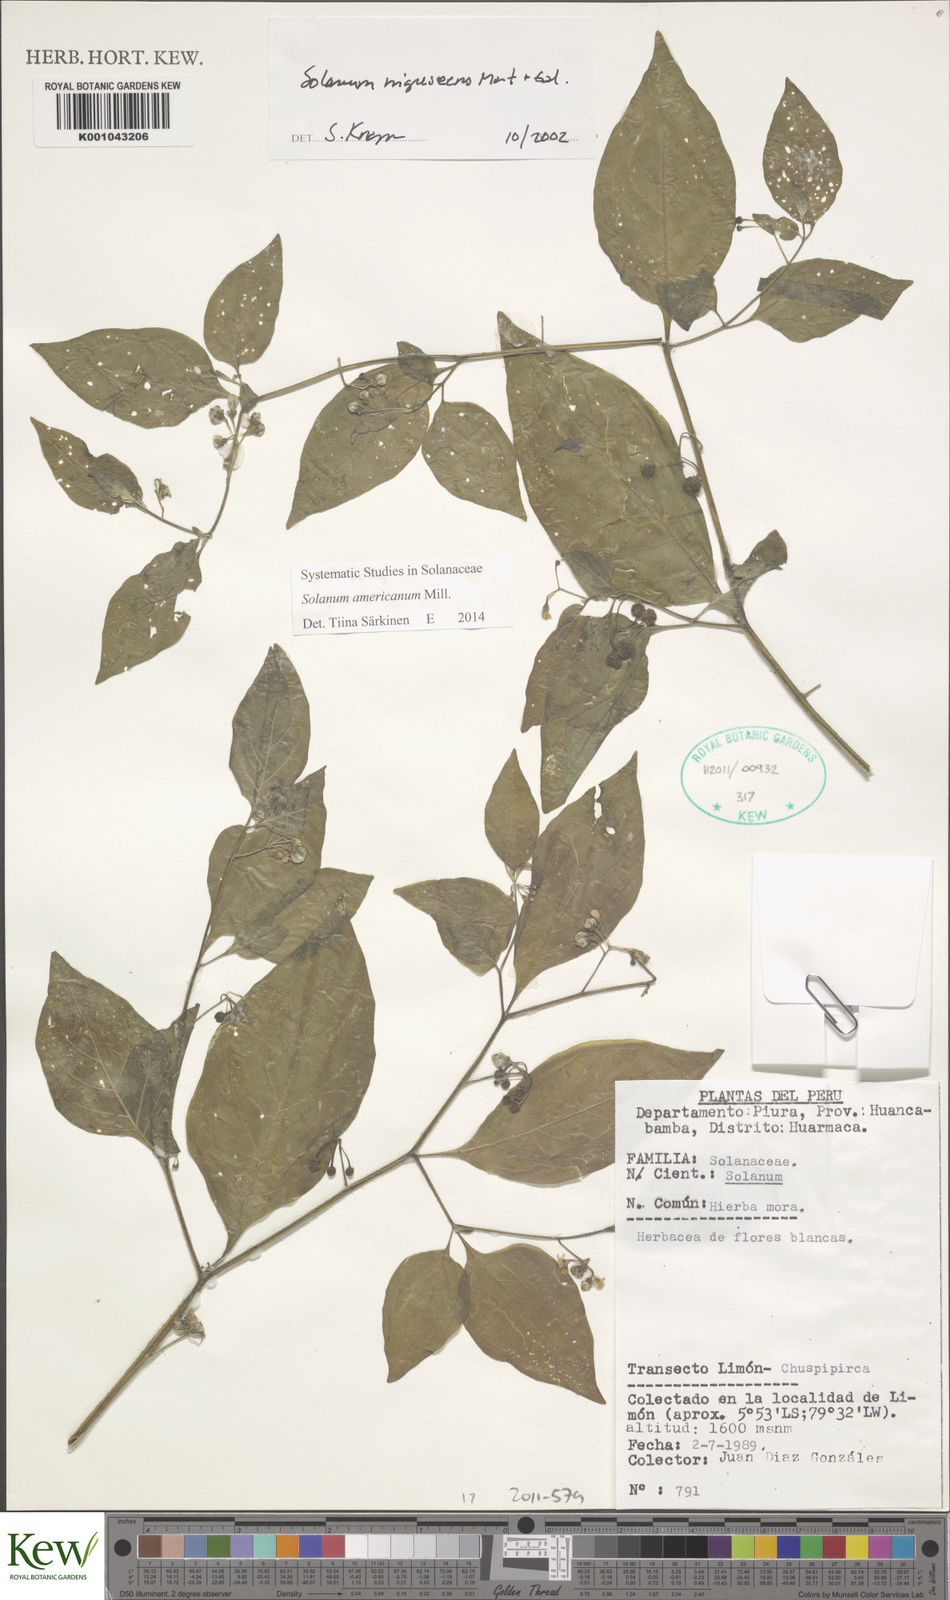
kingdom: Plantae
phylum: Tracheophyta
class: Magnoliopsida
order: Solanales
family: Solanaceae
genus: Solanum
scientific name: Solanum americanum
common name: American black nightshade
